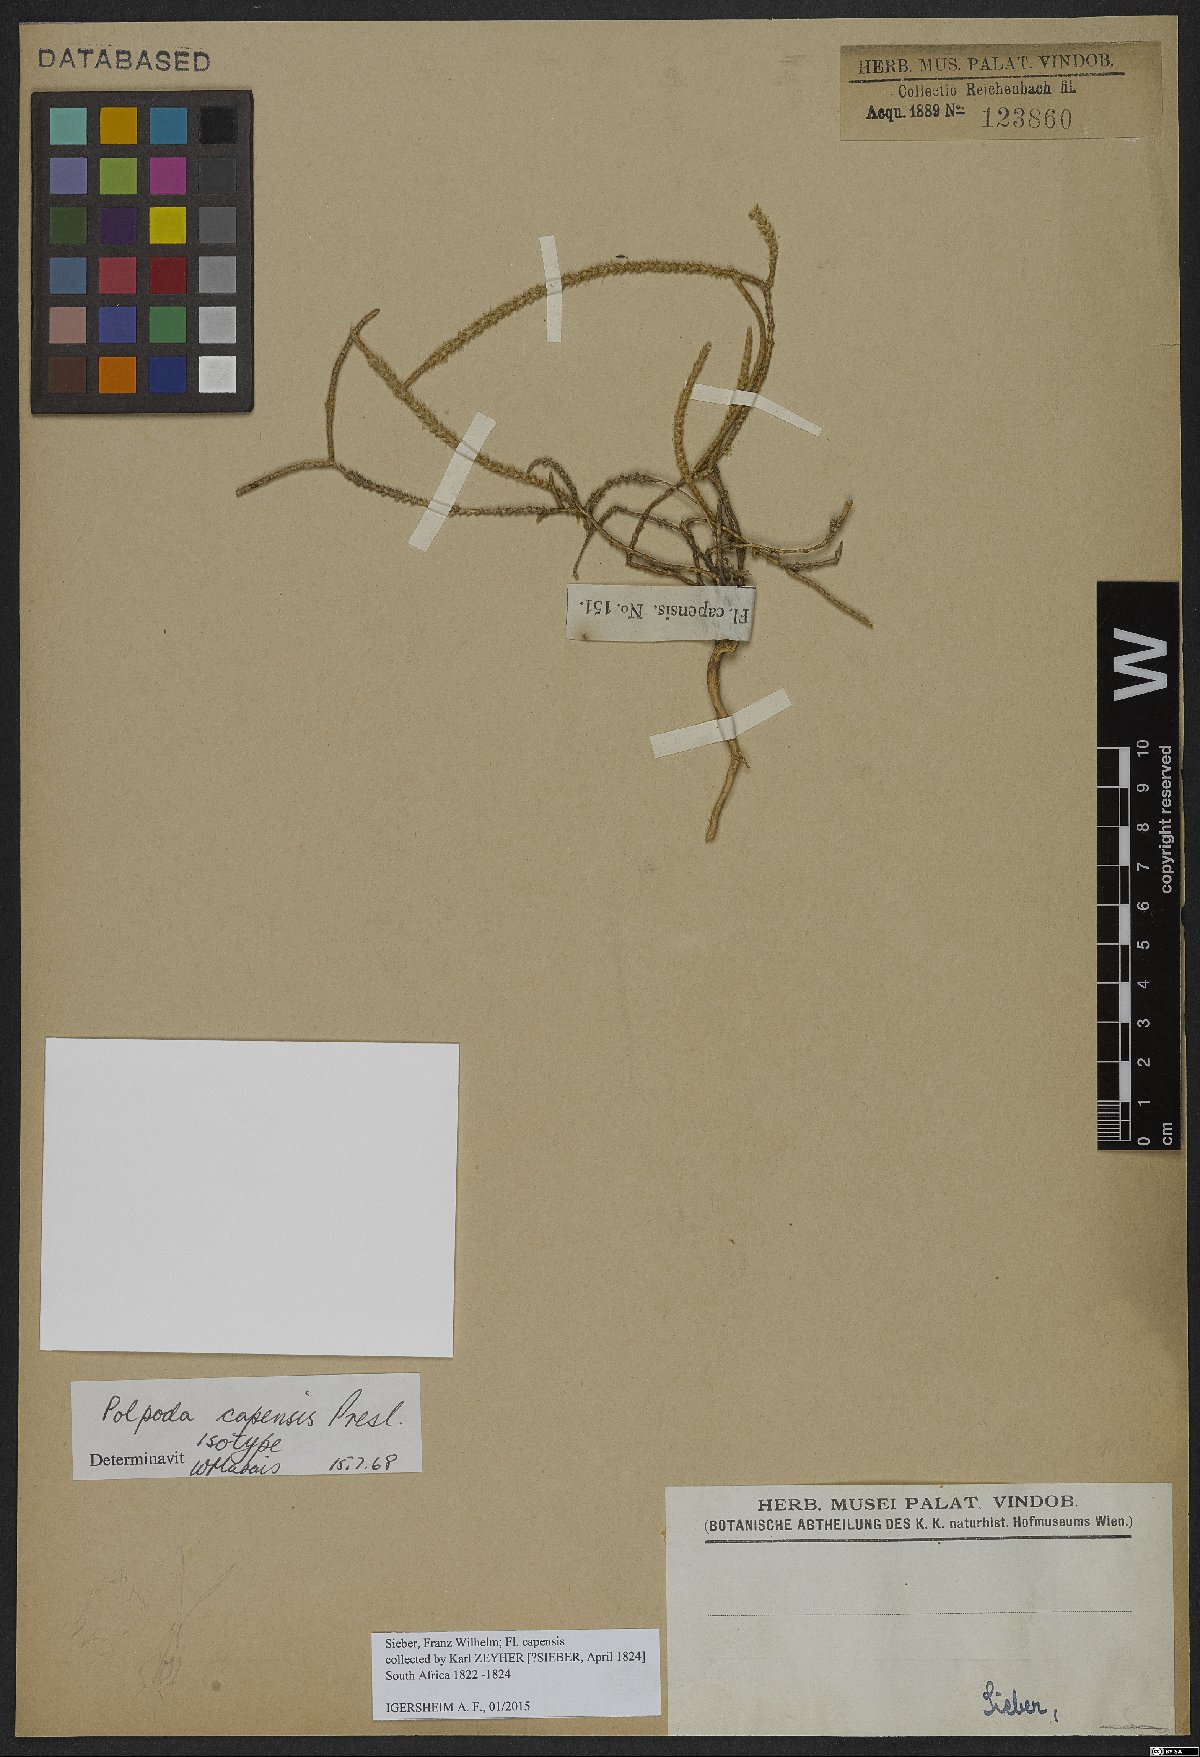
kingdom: Plantae
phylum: Tracheophyta
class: Magnoliopsida
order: Caryophyllales
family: Molluginaceae
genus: Polpoda
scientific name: Polpoda capensis
